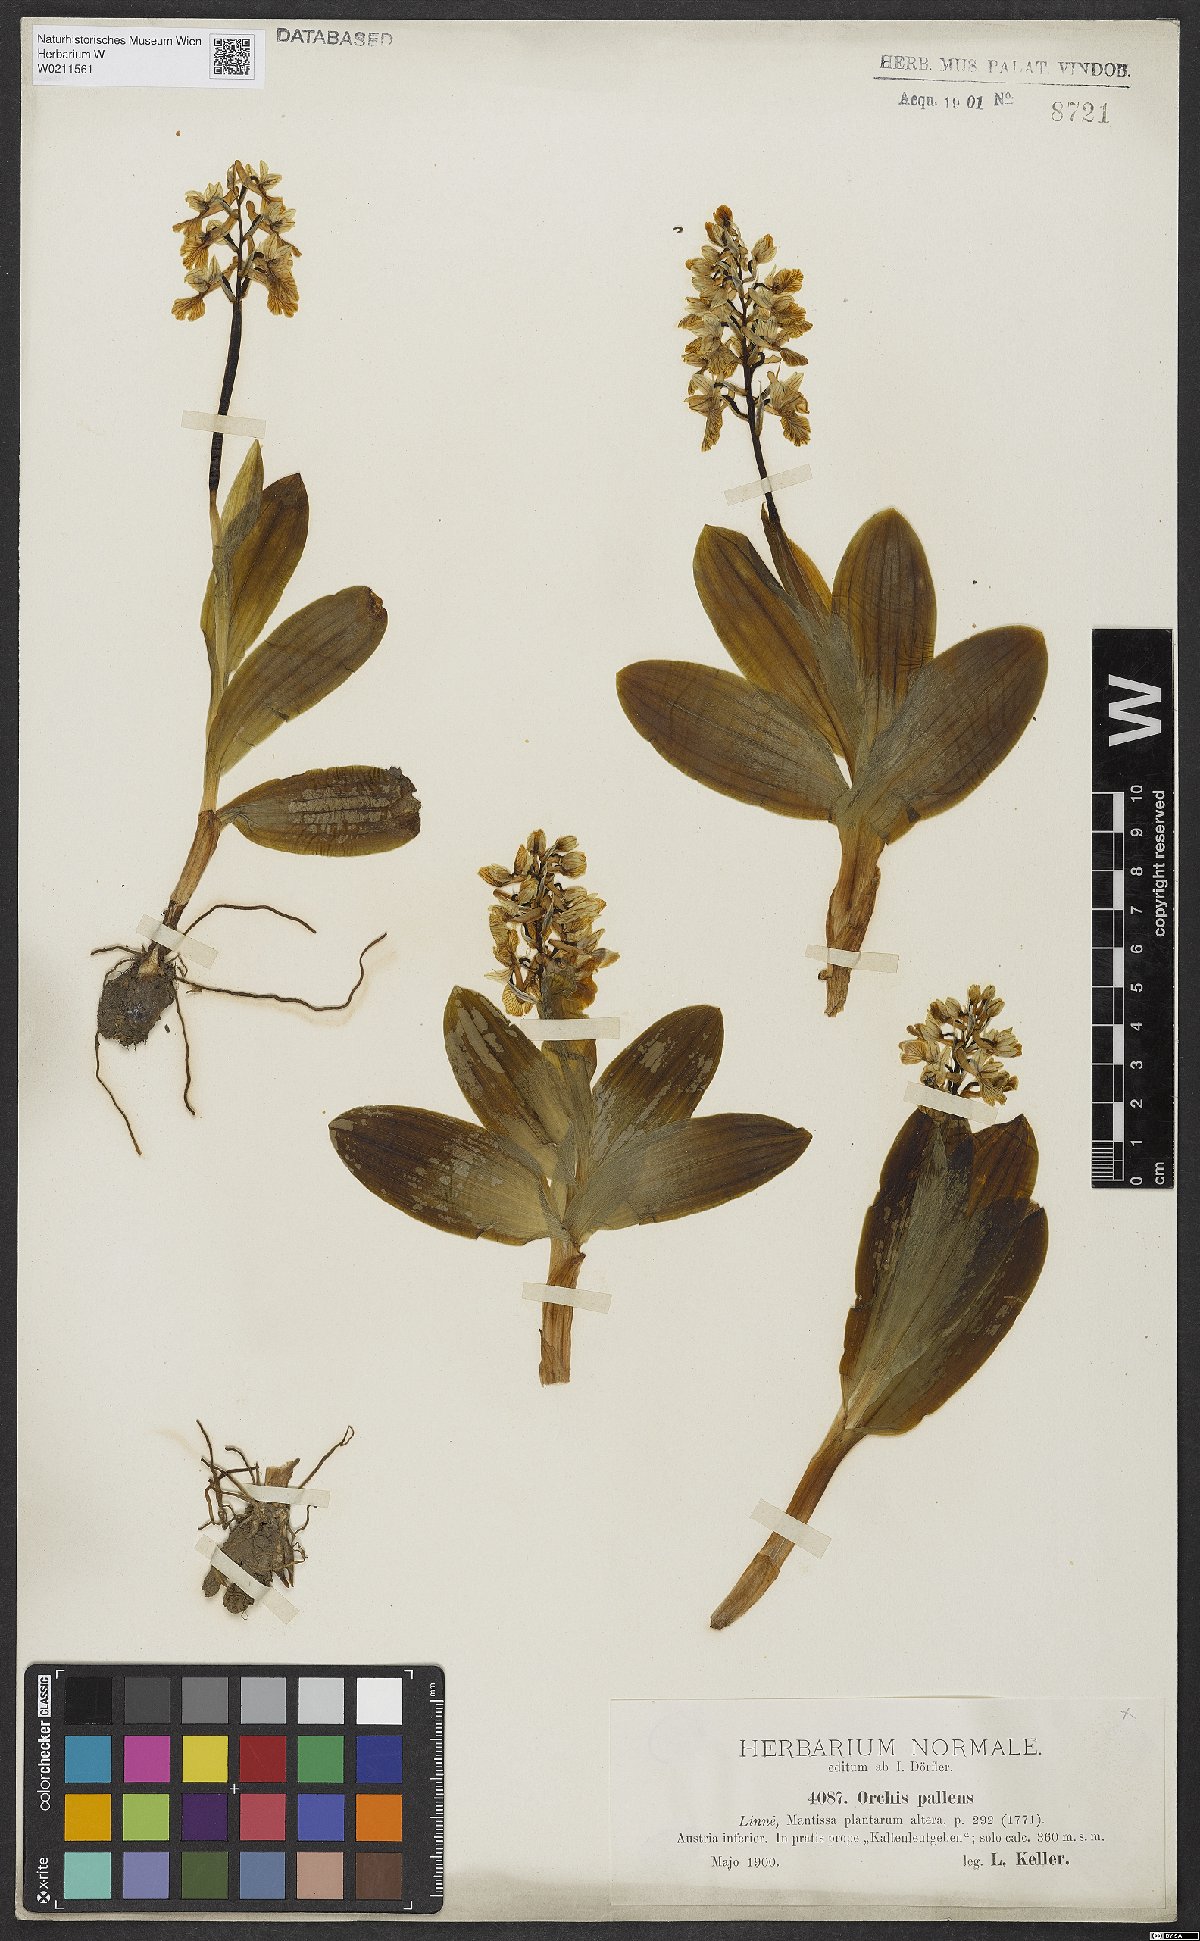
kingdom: Plantae
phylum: Tracheophyta
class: Liliopsida
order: Asparagales
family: Orchidaceae
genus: Orchis
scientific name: Orchis pallens
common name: Pale-flowered orchid
